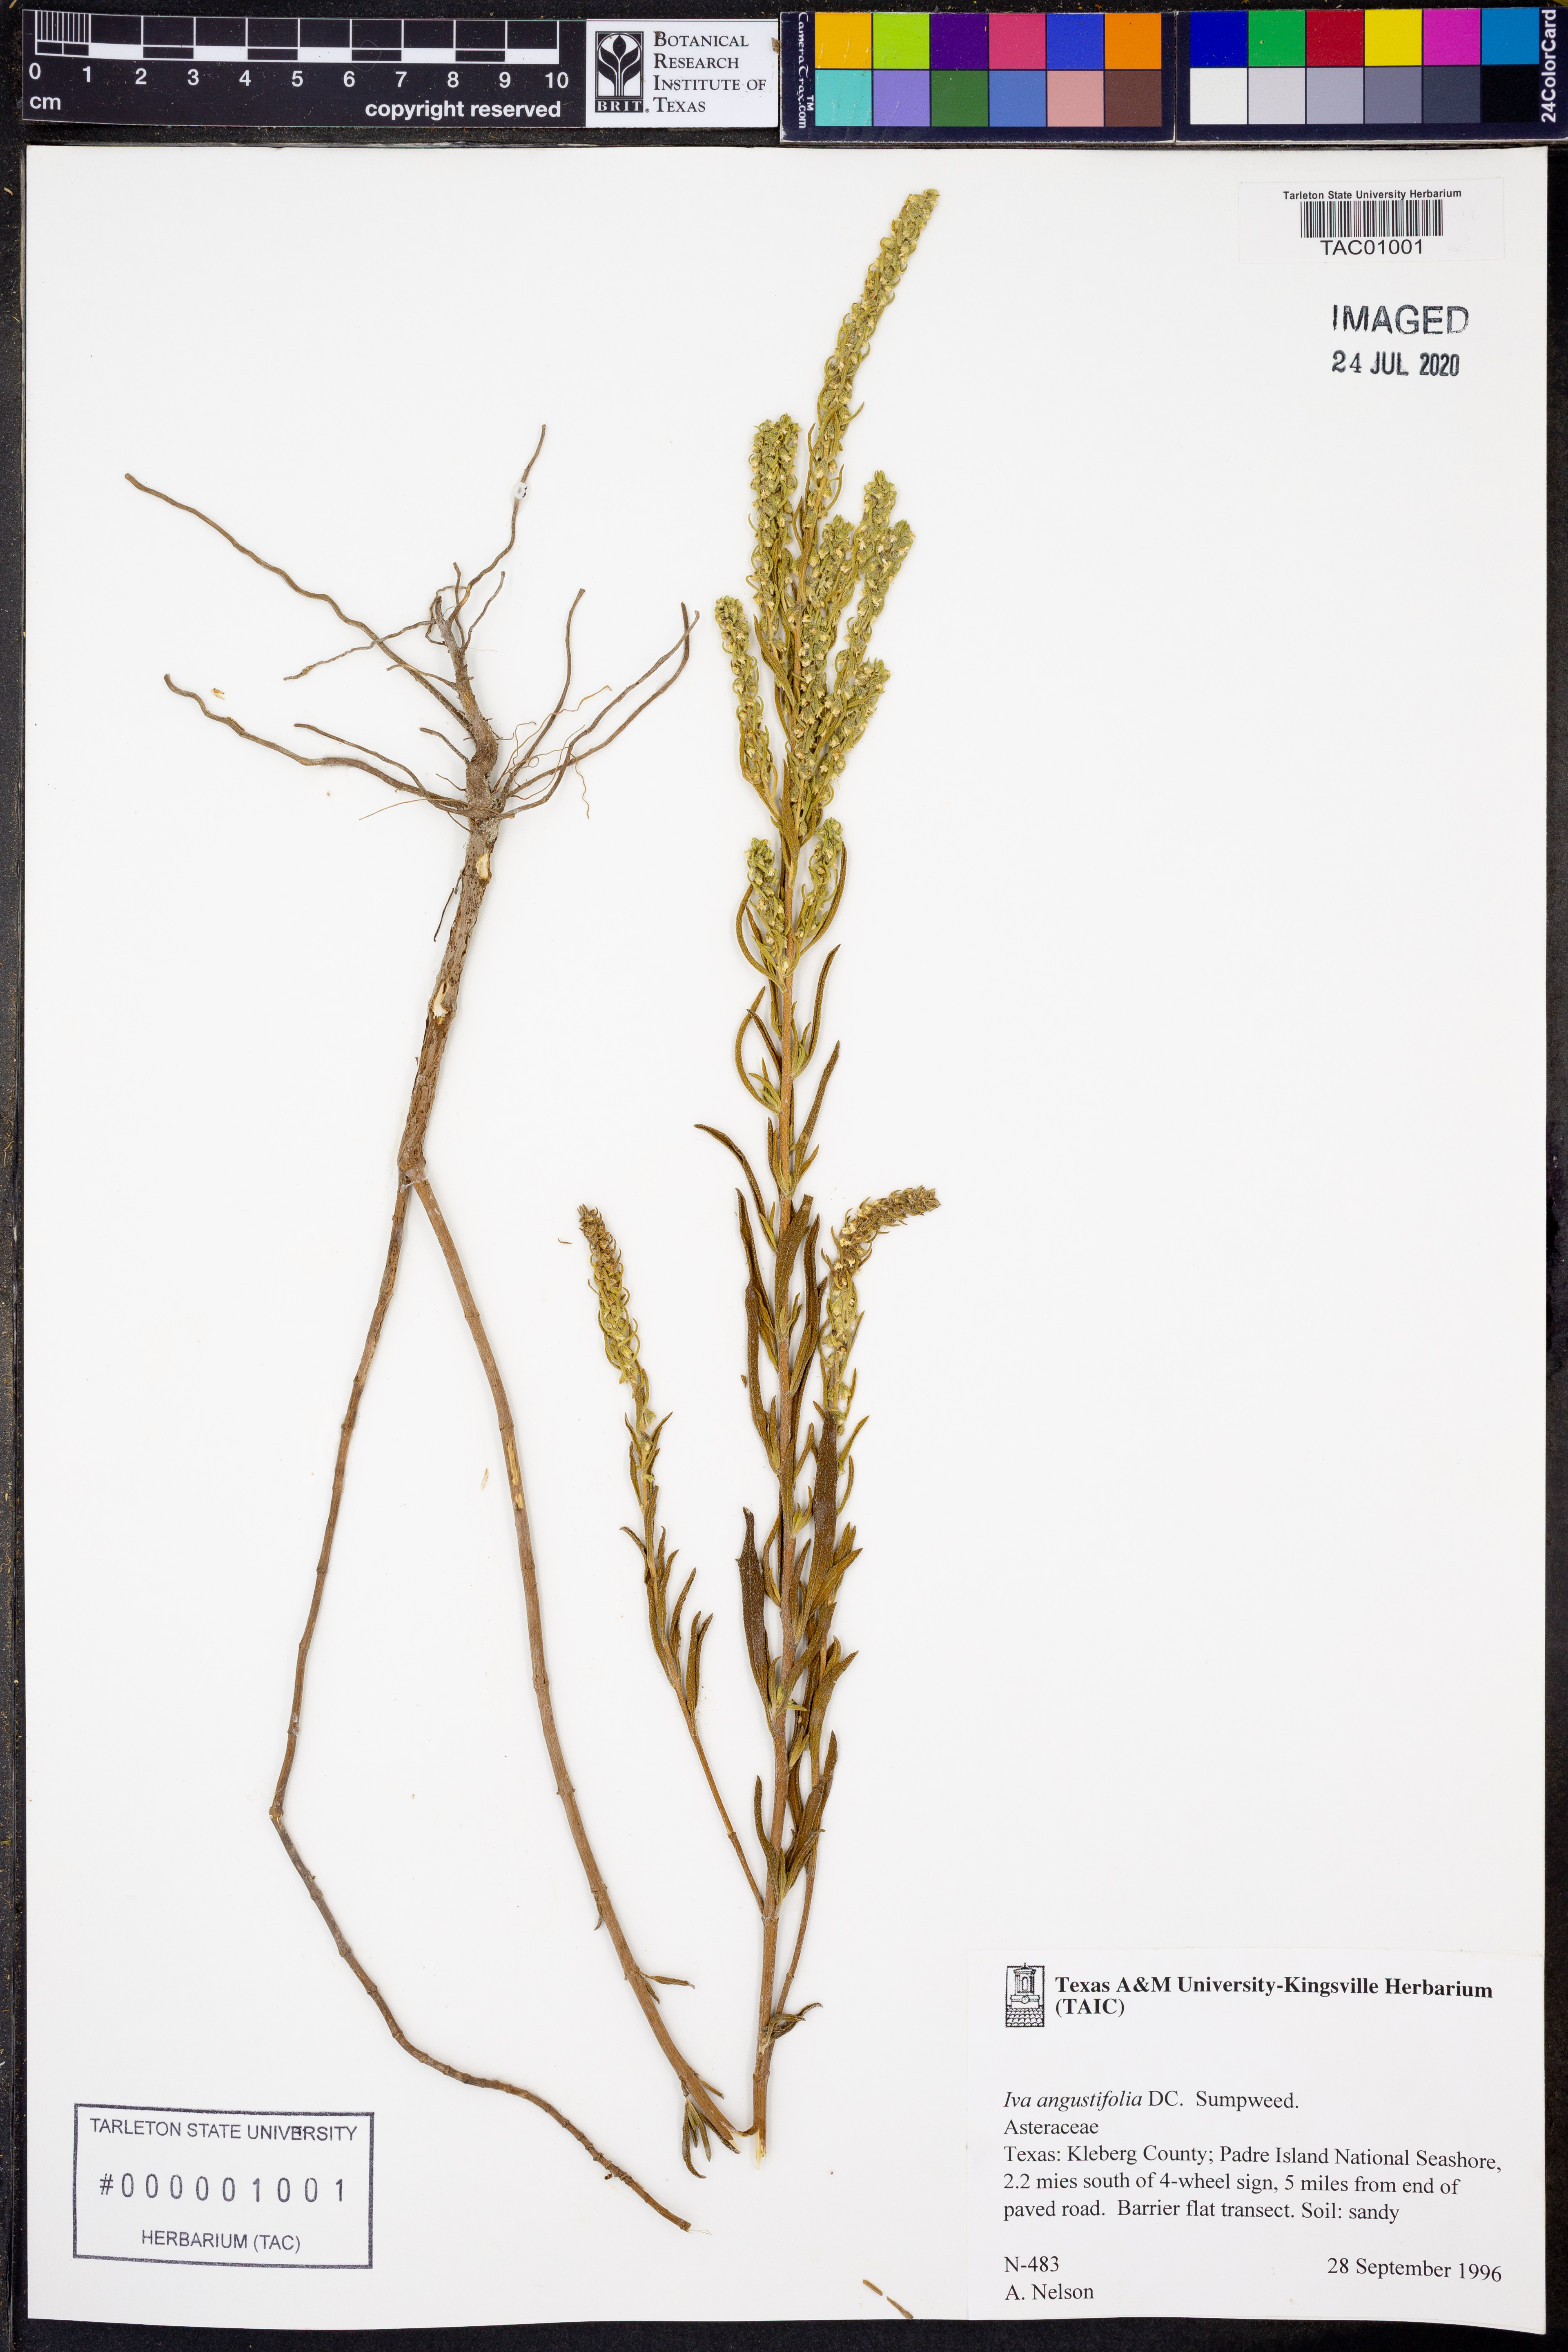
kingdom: Plantae
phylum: Tracheophyta
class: Magnoliopsida
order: Asterales
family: Asteraceae
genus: Iva
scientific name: Iva asperifolia
